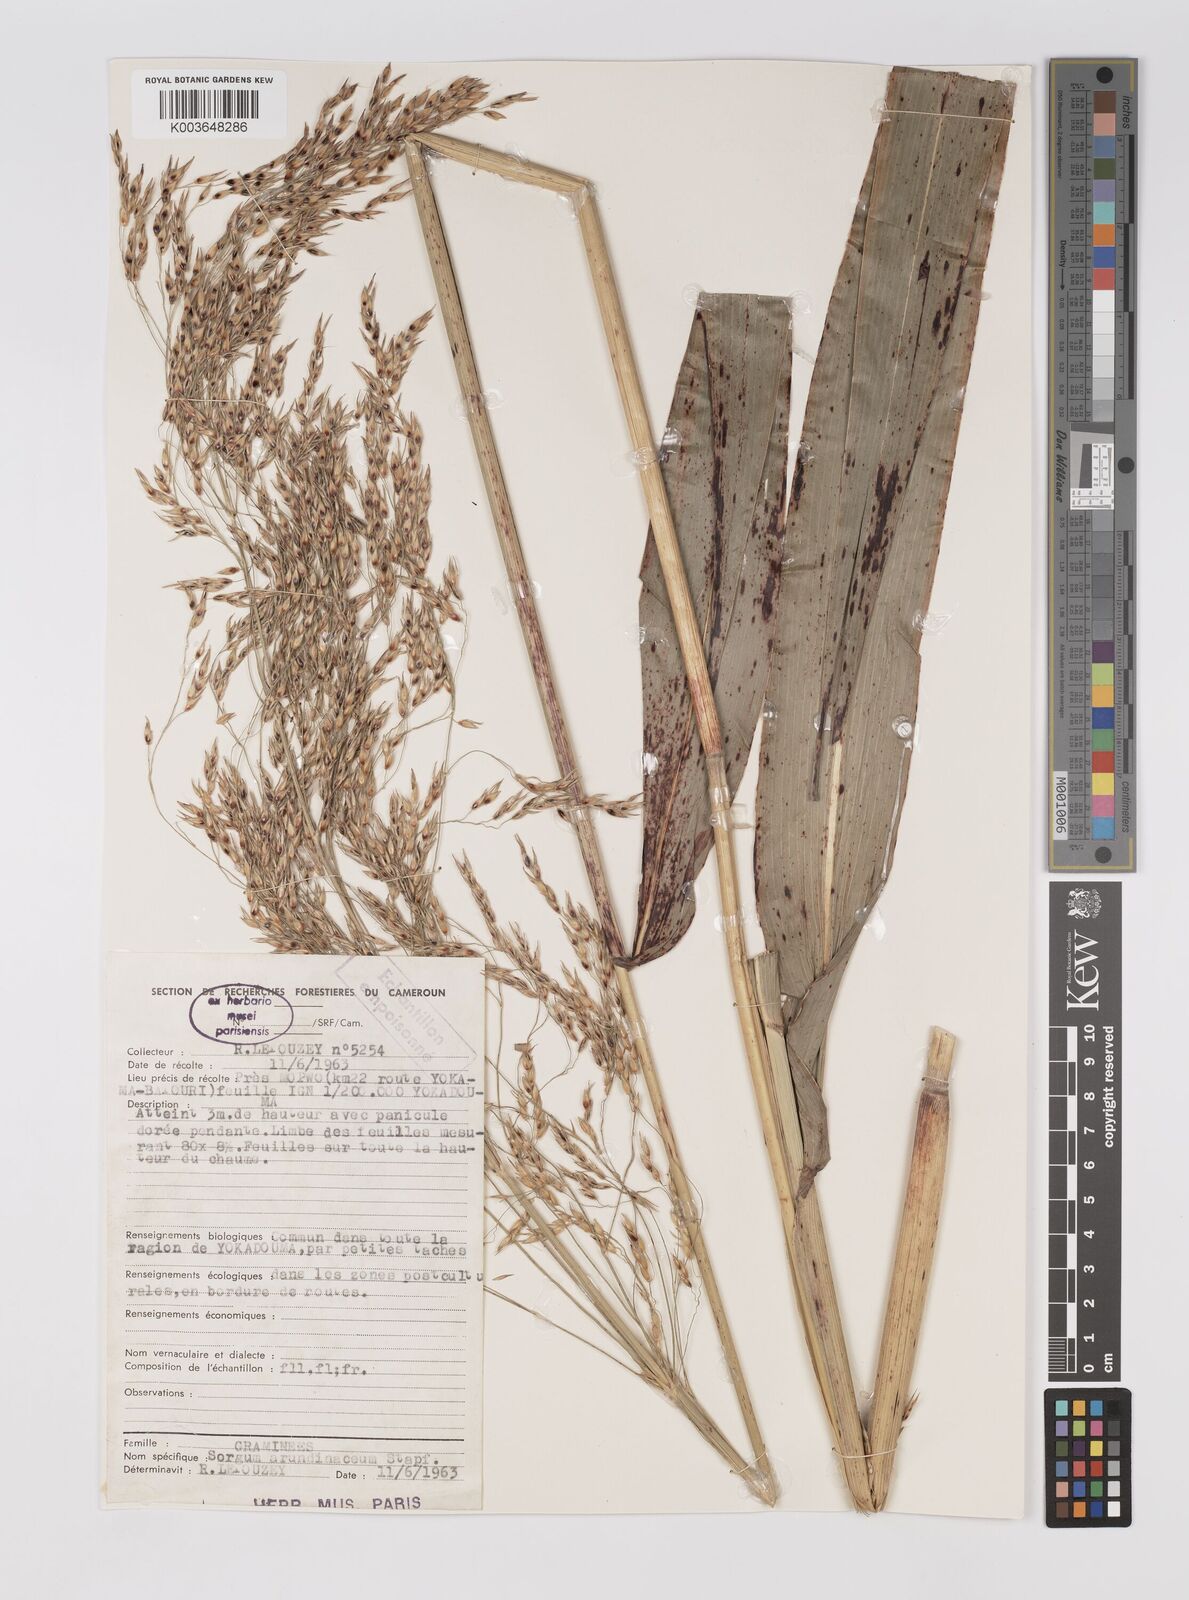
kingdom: Plantae
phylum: Tracheophyta
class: Liliopsida
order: Poales
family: Poaceae
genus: Sorghum
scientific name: Sorghum arundinaceum
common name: Sorghum
